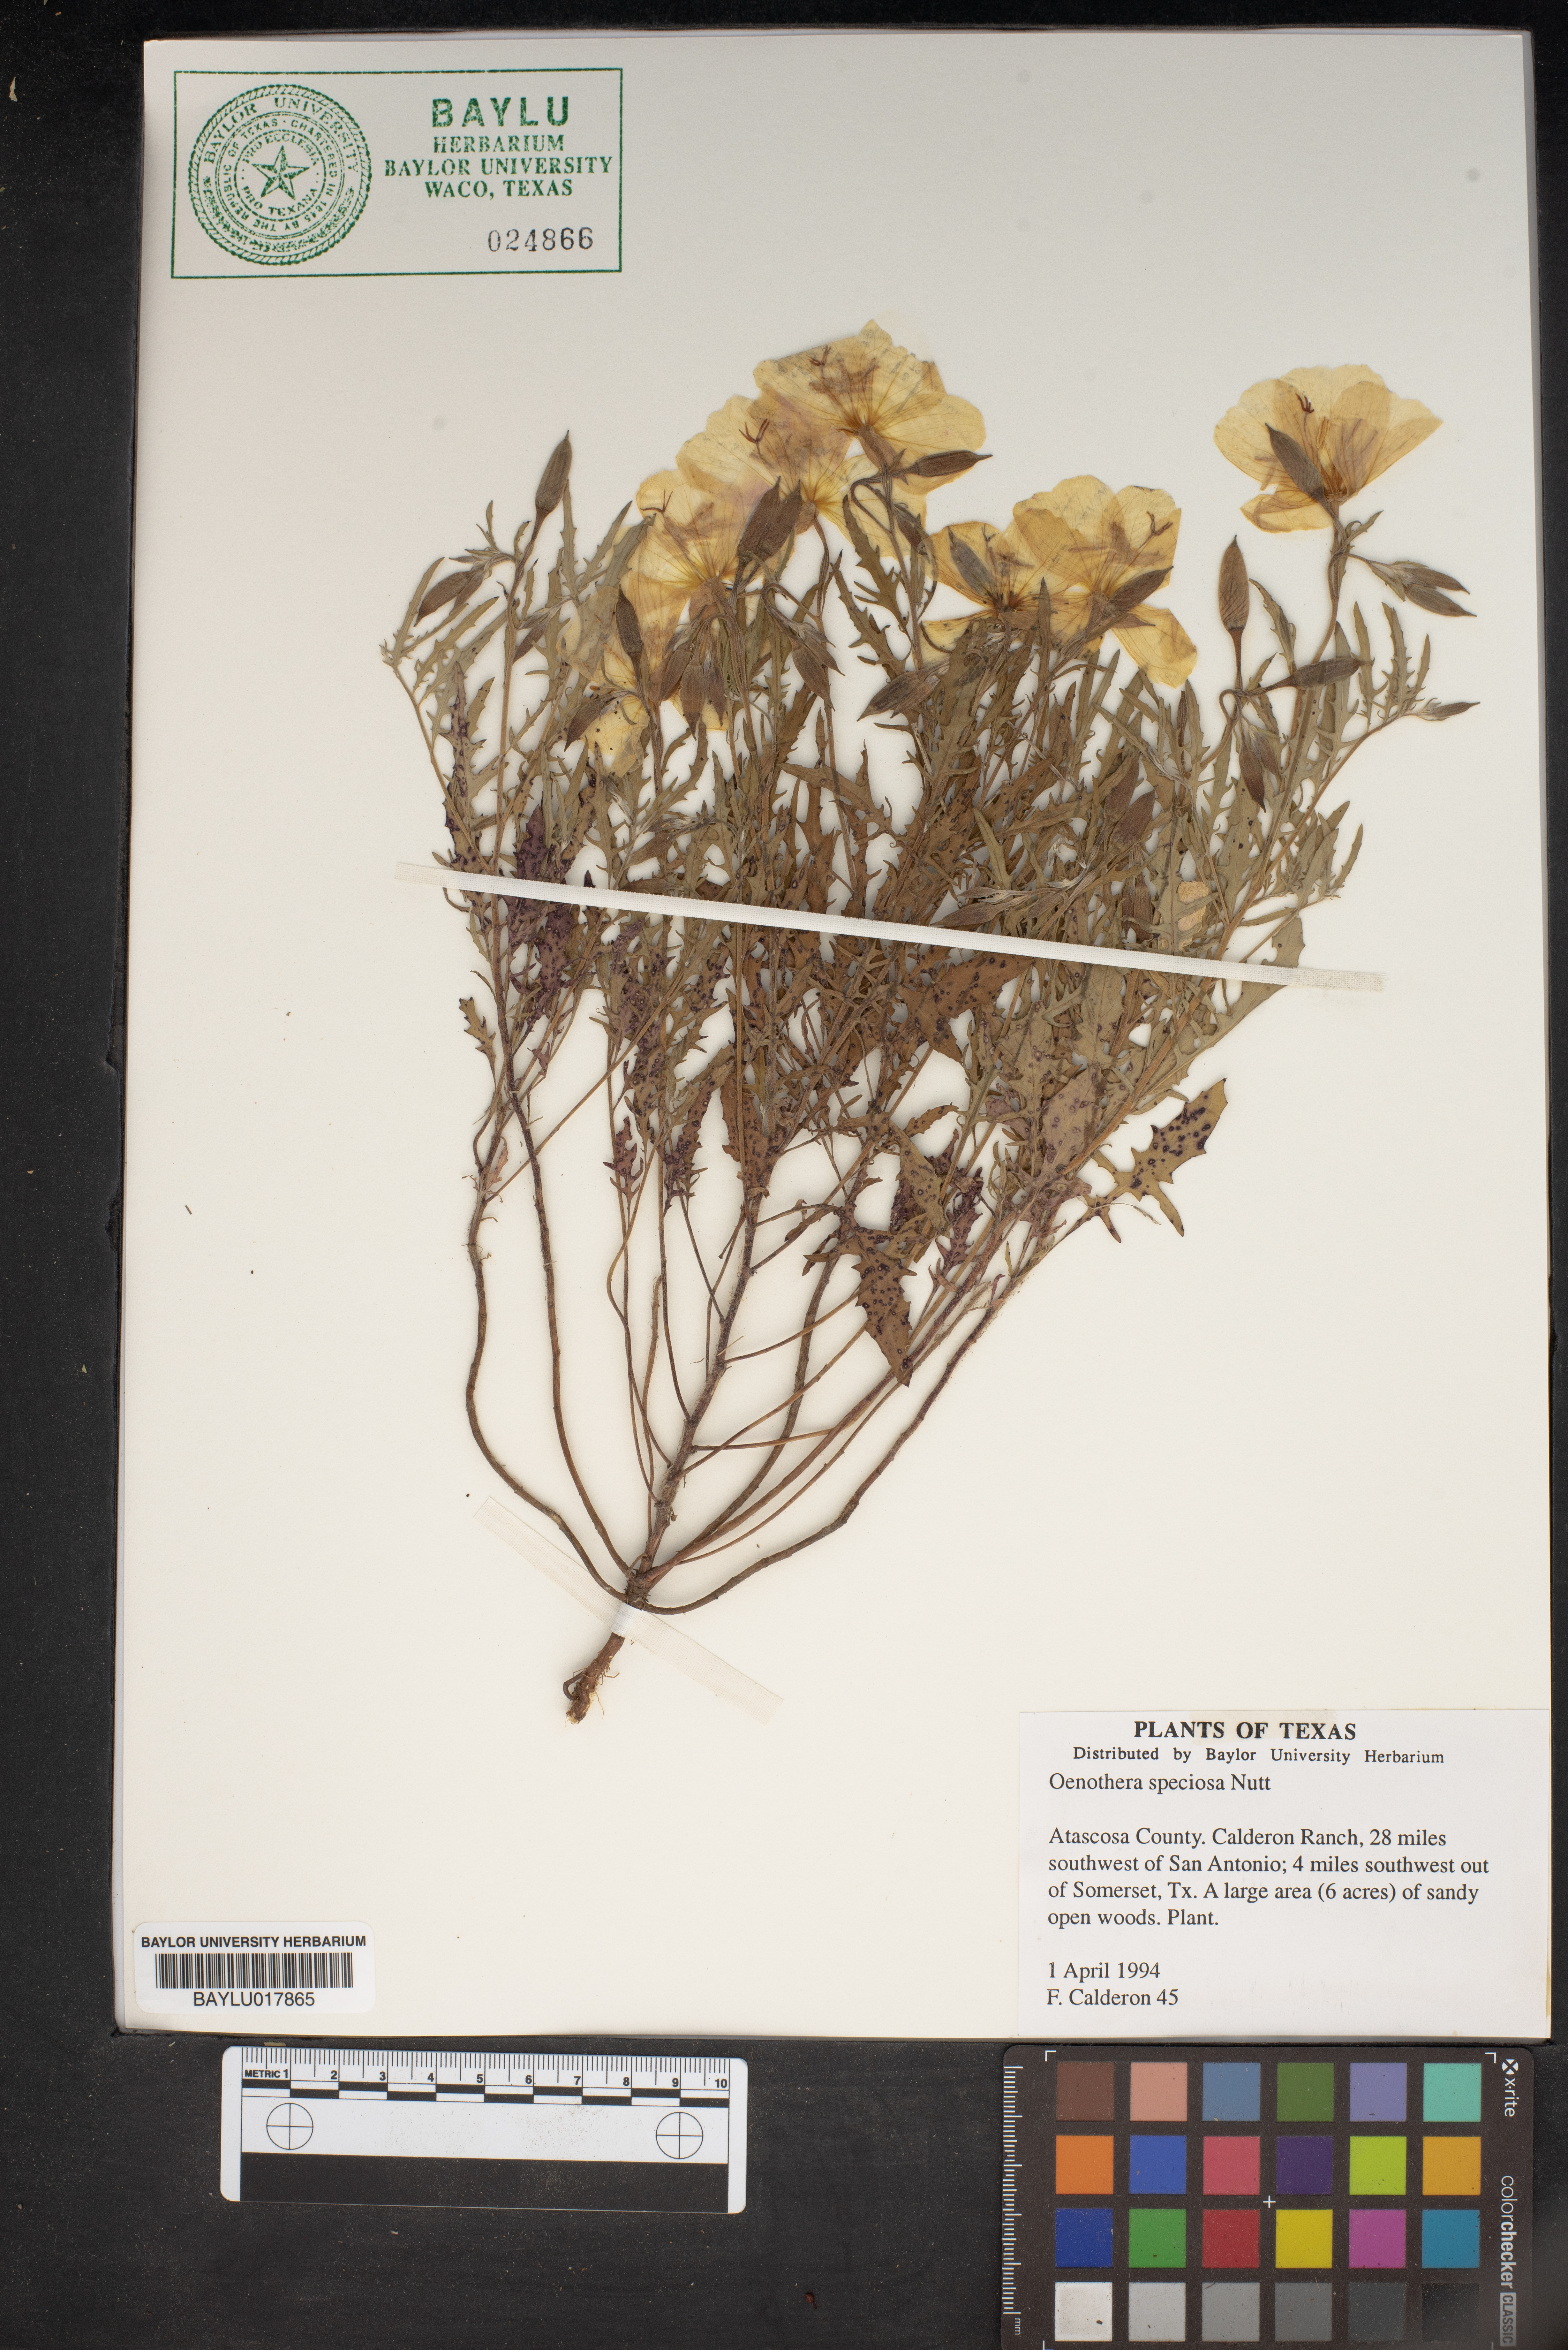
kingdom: Plantae
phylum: Tracheophyta
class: Magnoliopsida
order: Myrtales
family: Onagraceae
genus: Oenothera
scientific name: Oenothera speciosa
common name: White evening-primrose
